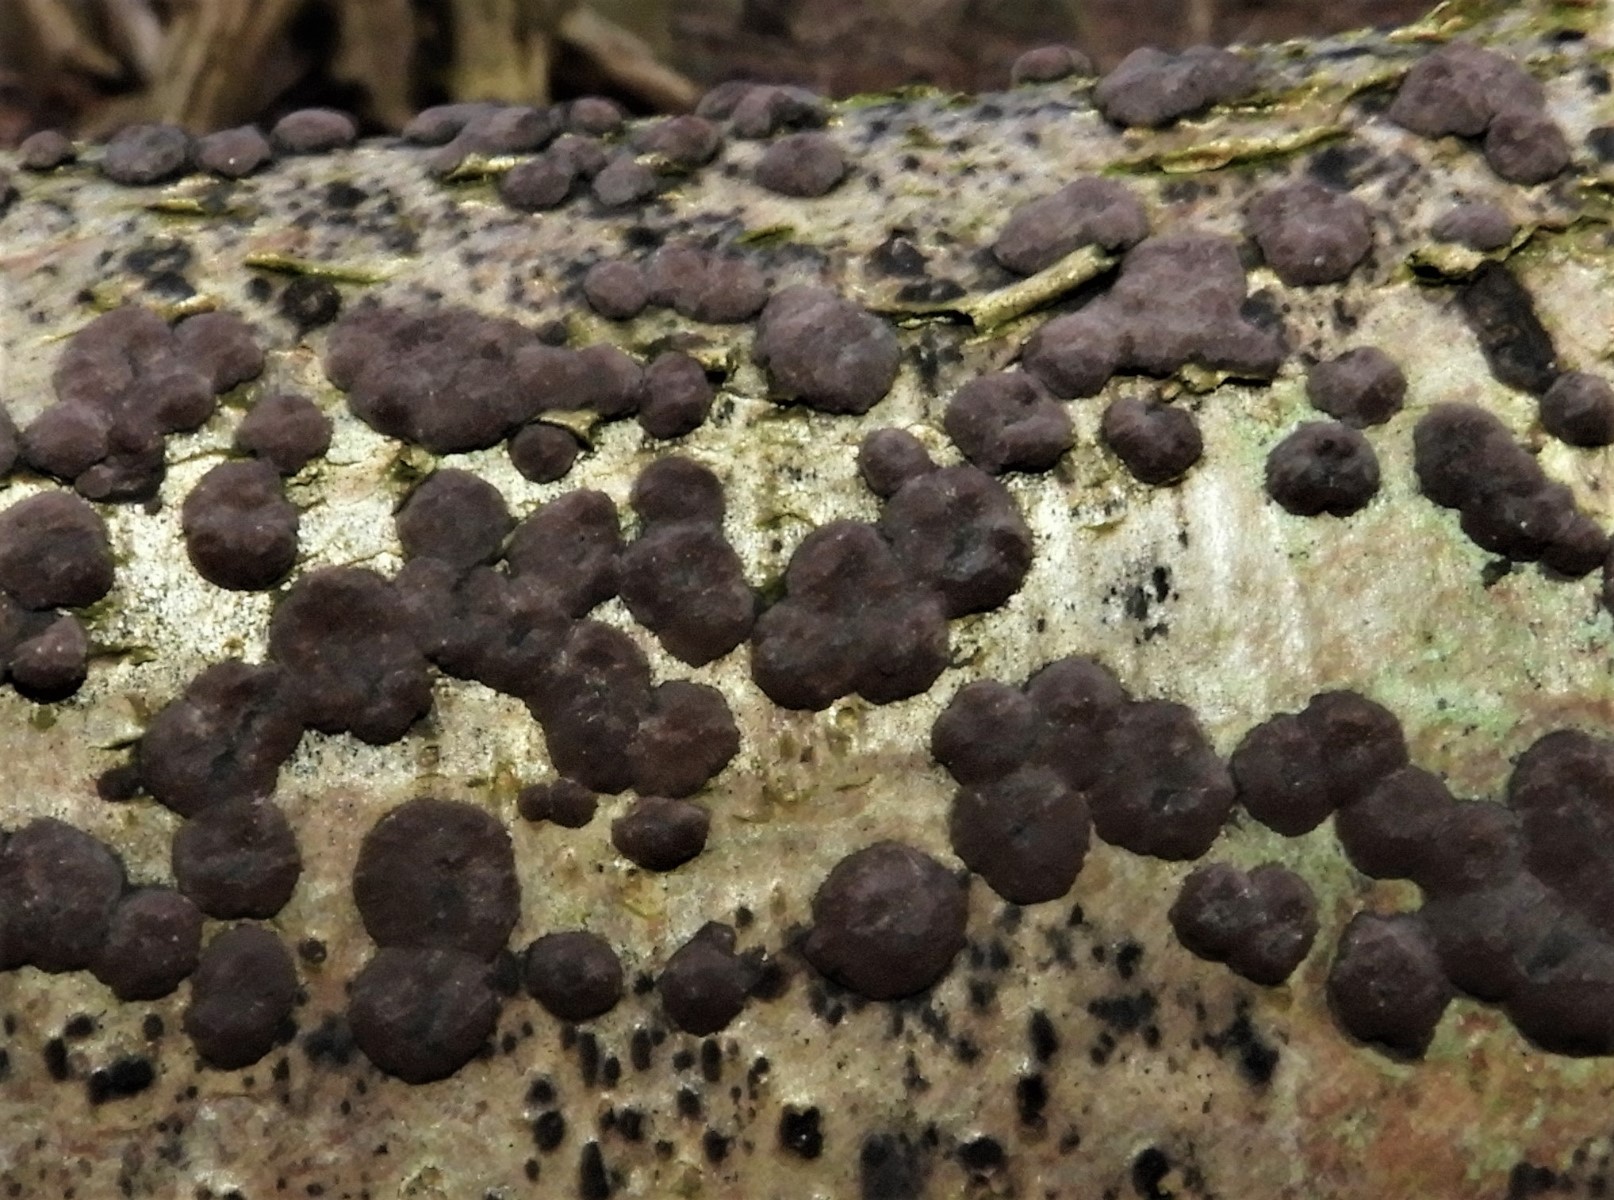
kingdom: Fungi
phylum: Ascomycota
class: Sordariomycetes
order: Xylariales
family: Hypoxylaceae
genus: Hypoxylon
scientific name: Hypoxylon fuscum
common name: kegleformet kulbær
